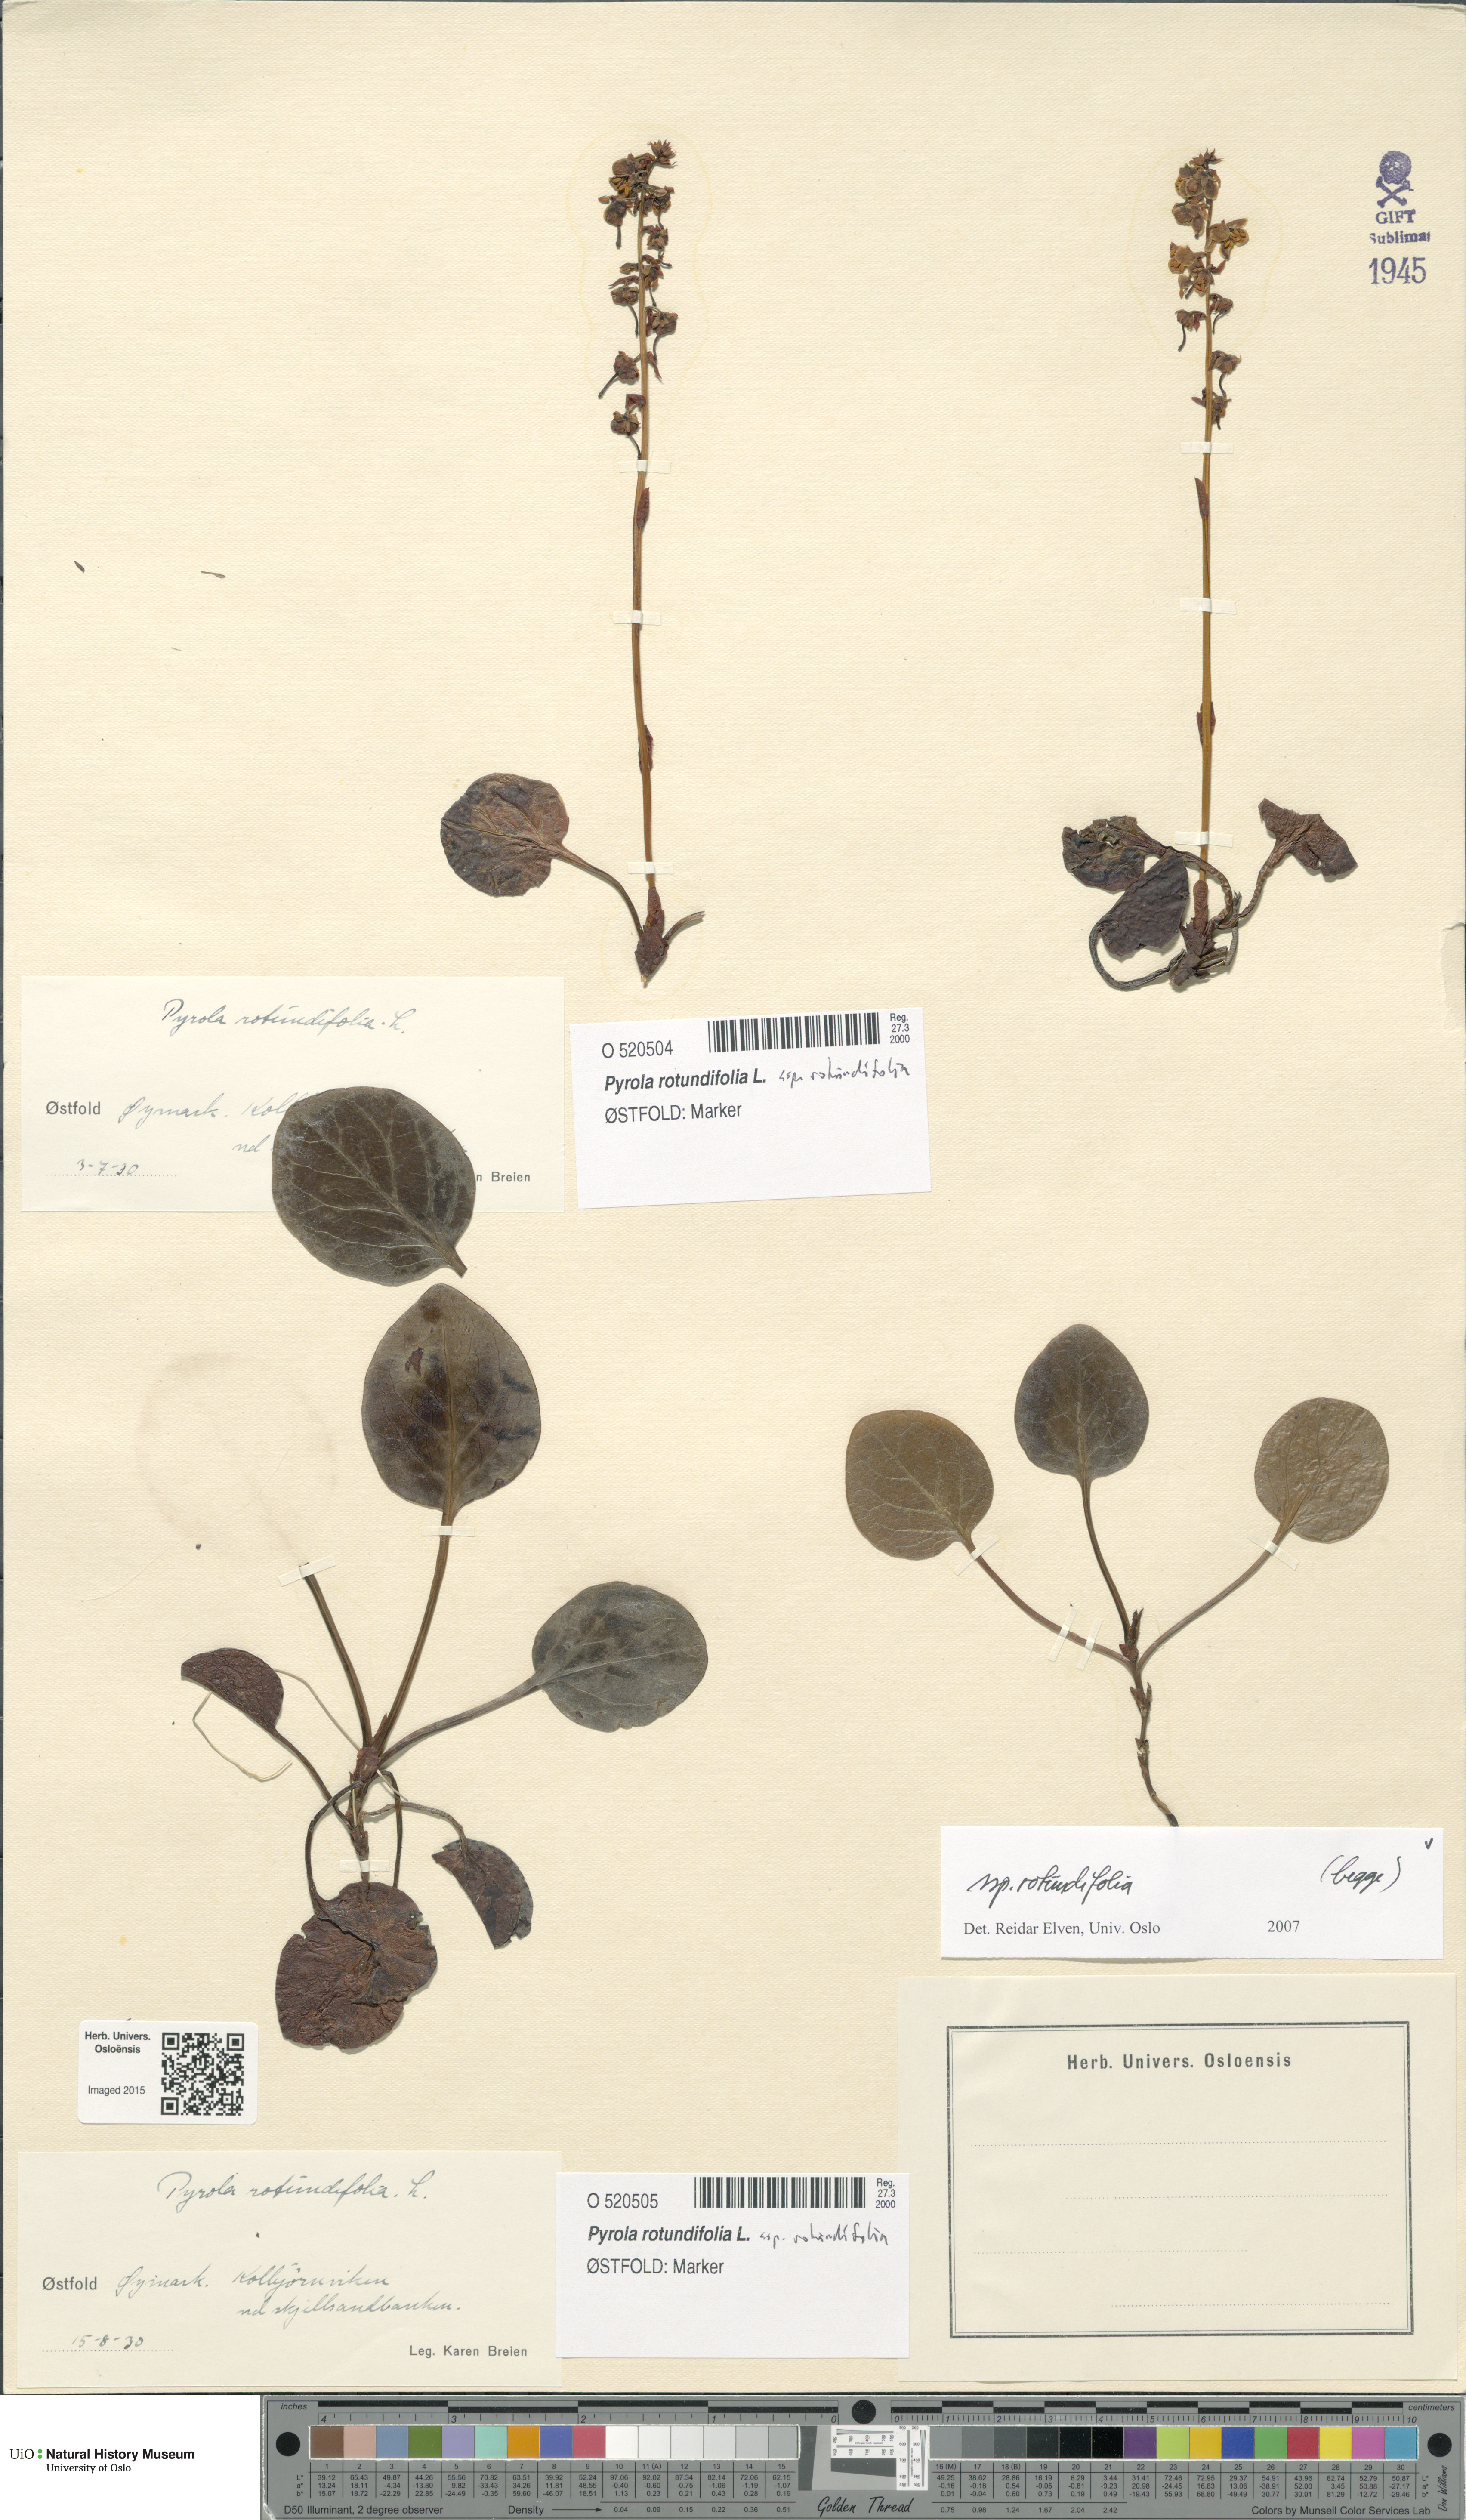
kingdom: Plantae
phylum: Tracheophyta
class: Magnoliopsida
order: Ericales
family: Ericaceae
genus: Pyrola
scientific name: Pyrola rotundifolia
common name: Round-leaved wintergreen
